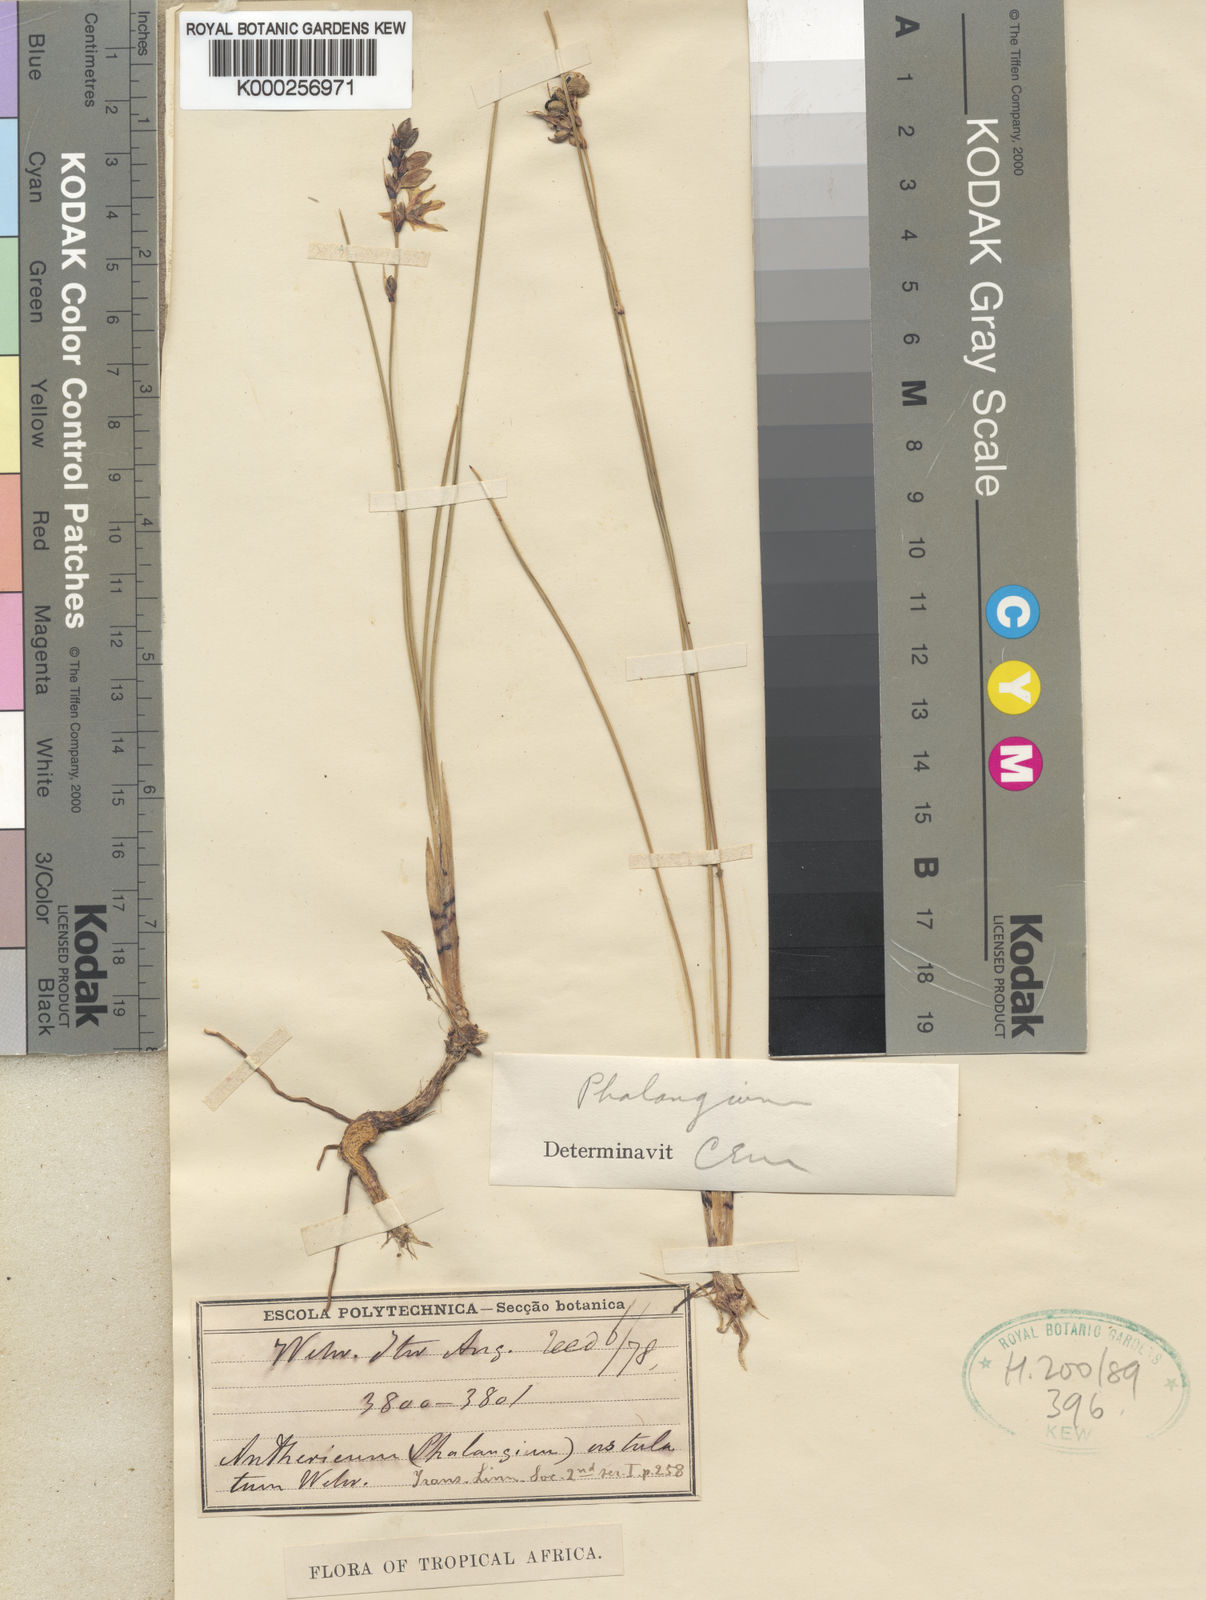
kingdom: Plantae
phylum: Tracheophyta
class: Liliopsida
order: Asparagales
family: Asparagaceae
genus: Chlorophytum
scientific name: Chlorophytum ustulatum
